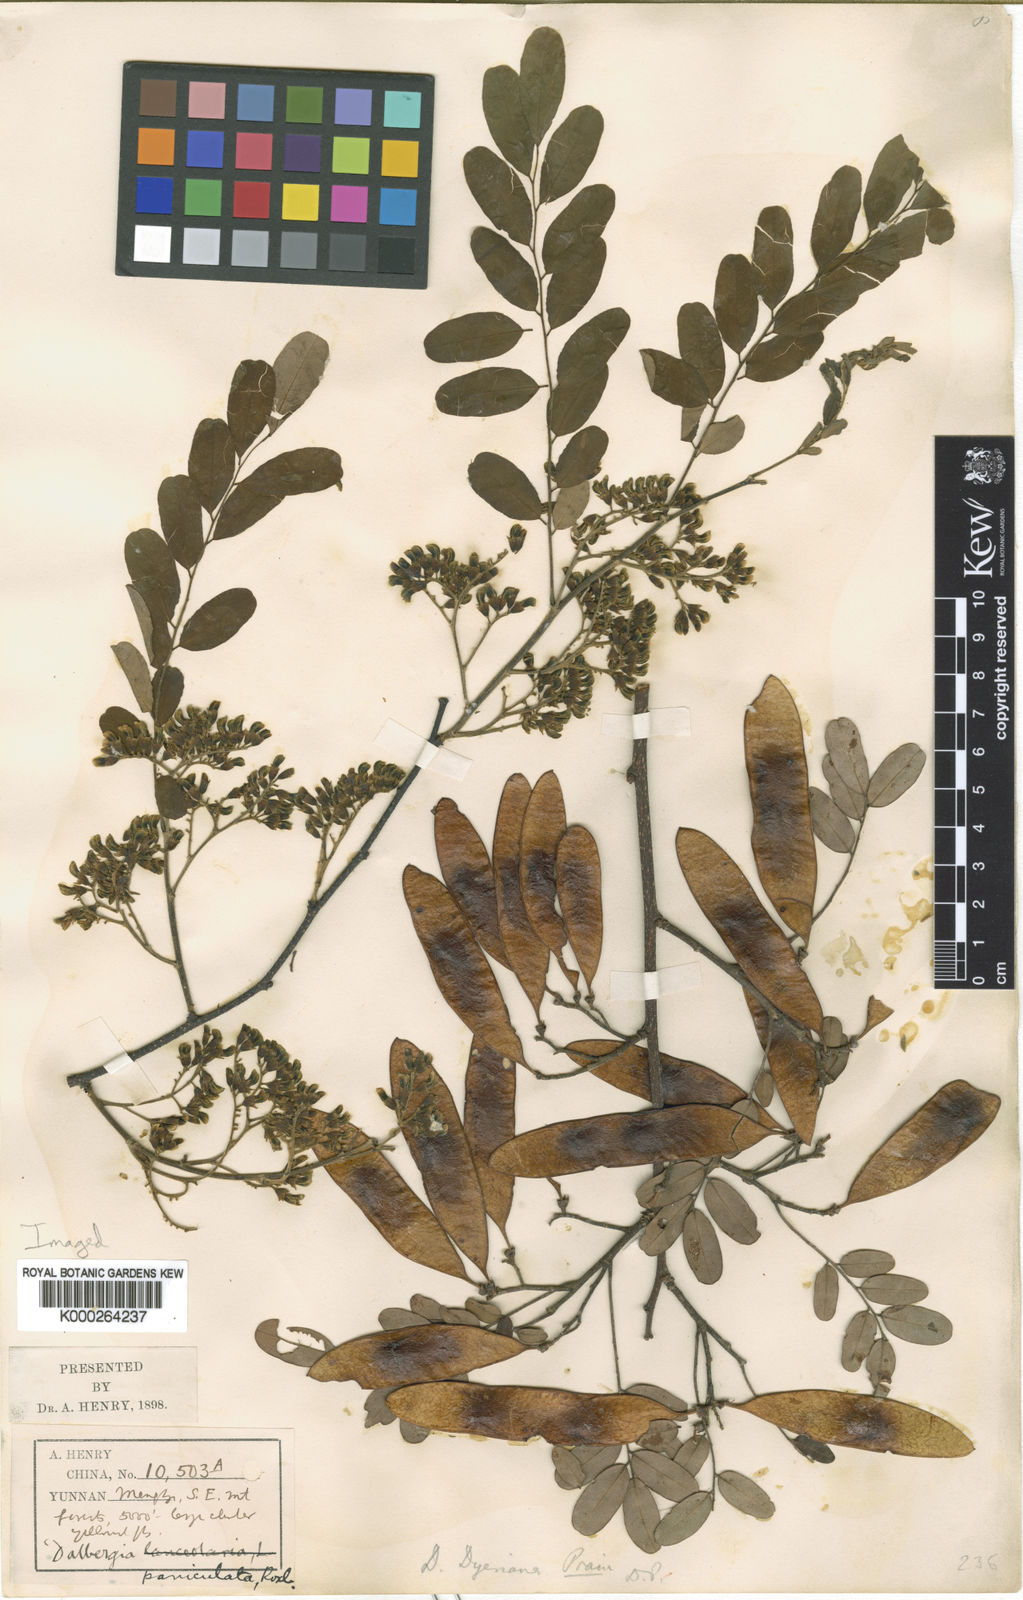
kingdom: Plantae
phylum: Tracheophyta
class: Magnoliopsida
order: Fabales
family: Fabaceae
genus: Dalbergia
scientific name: Dalbergia dyeriana
